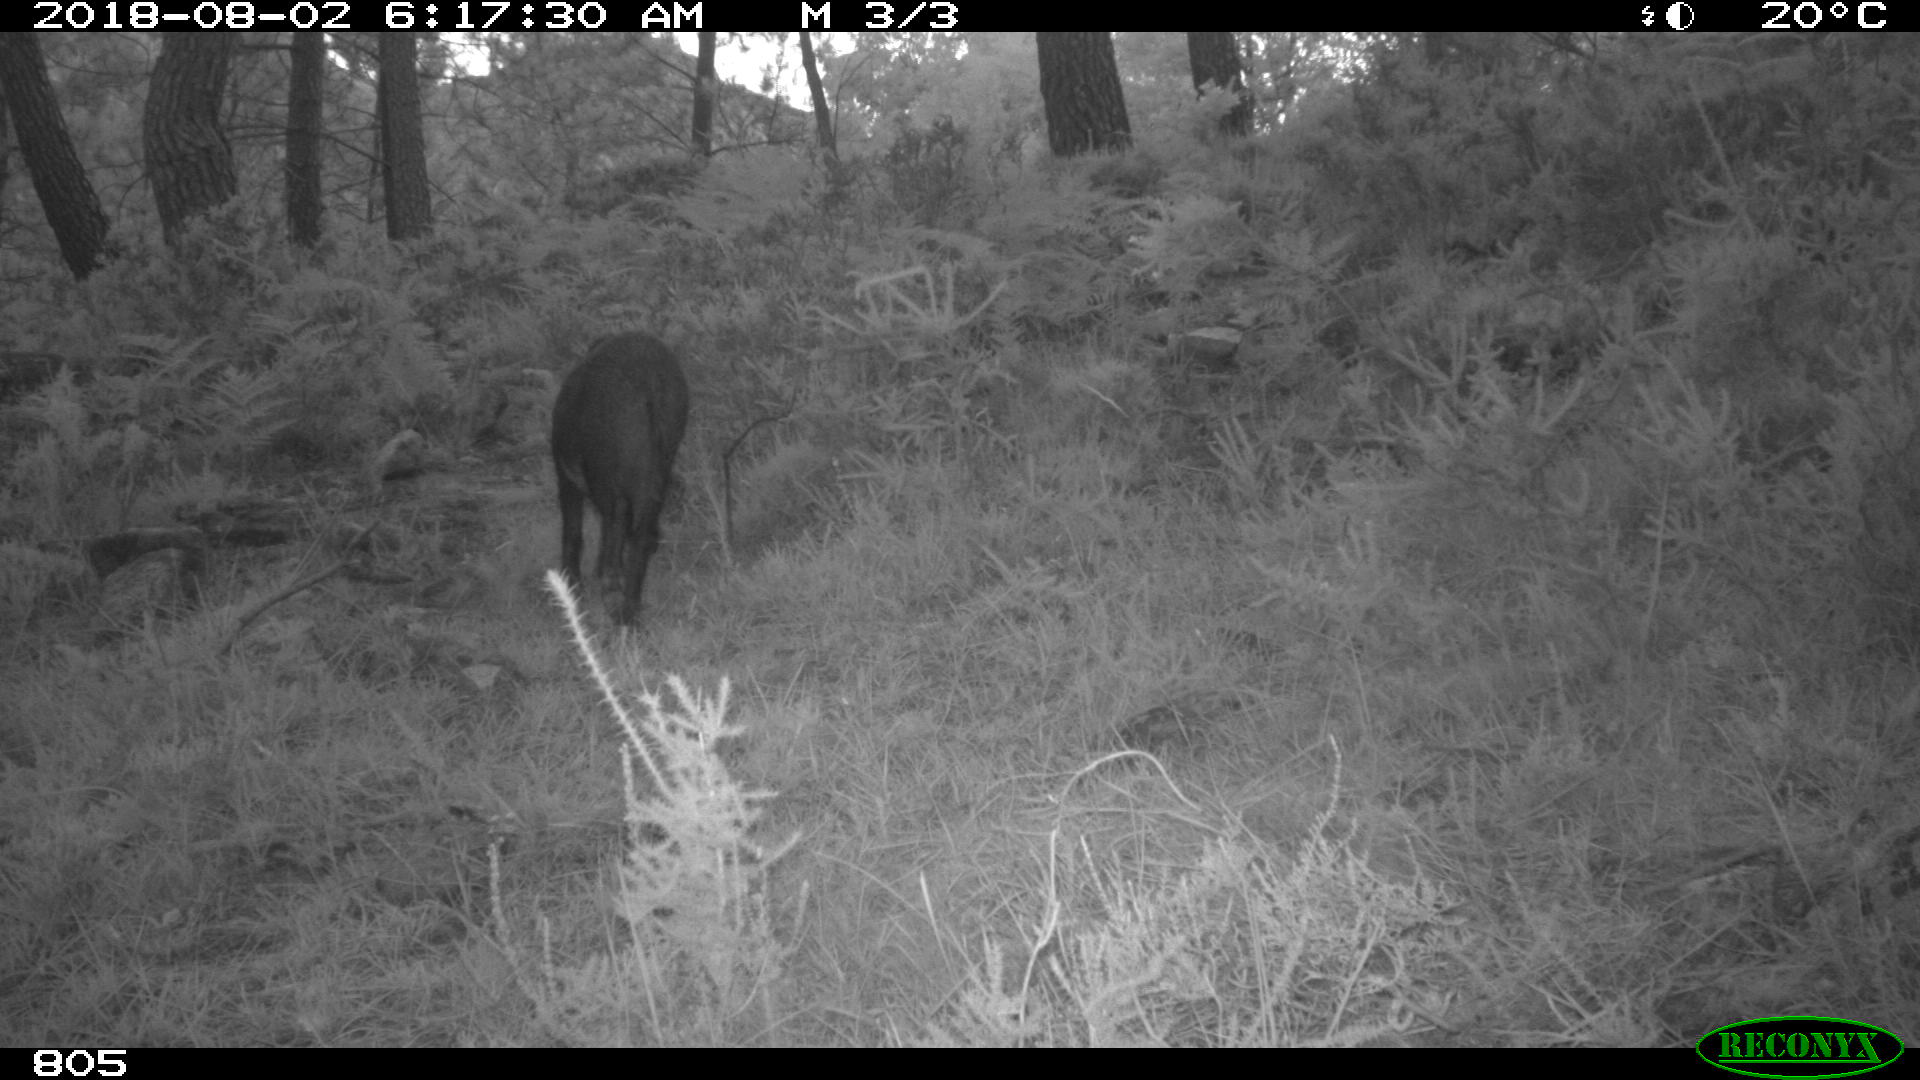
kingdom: Animalia
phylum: Chordata
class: Mammalia
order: Artiodactyla
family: Suidae
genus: Sus
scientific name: Sus scrofa
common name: Wild boar
